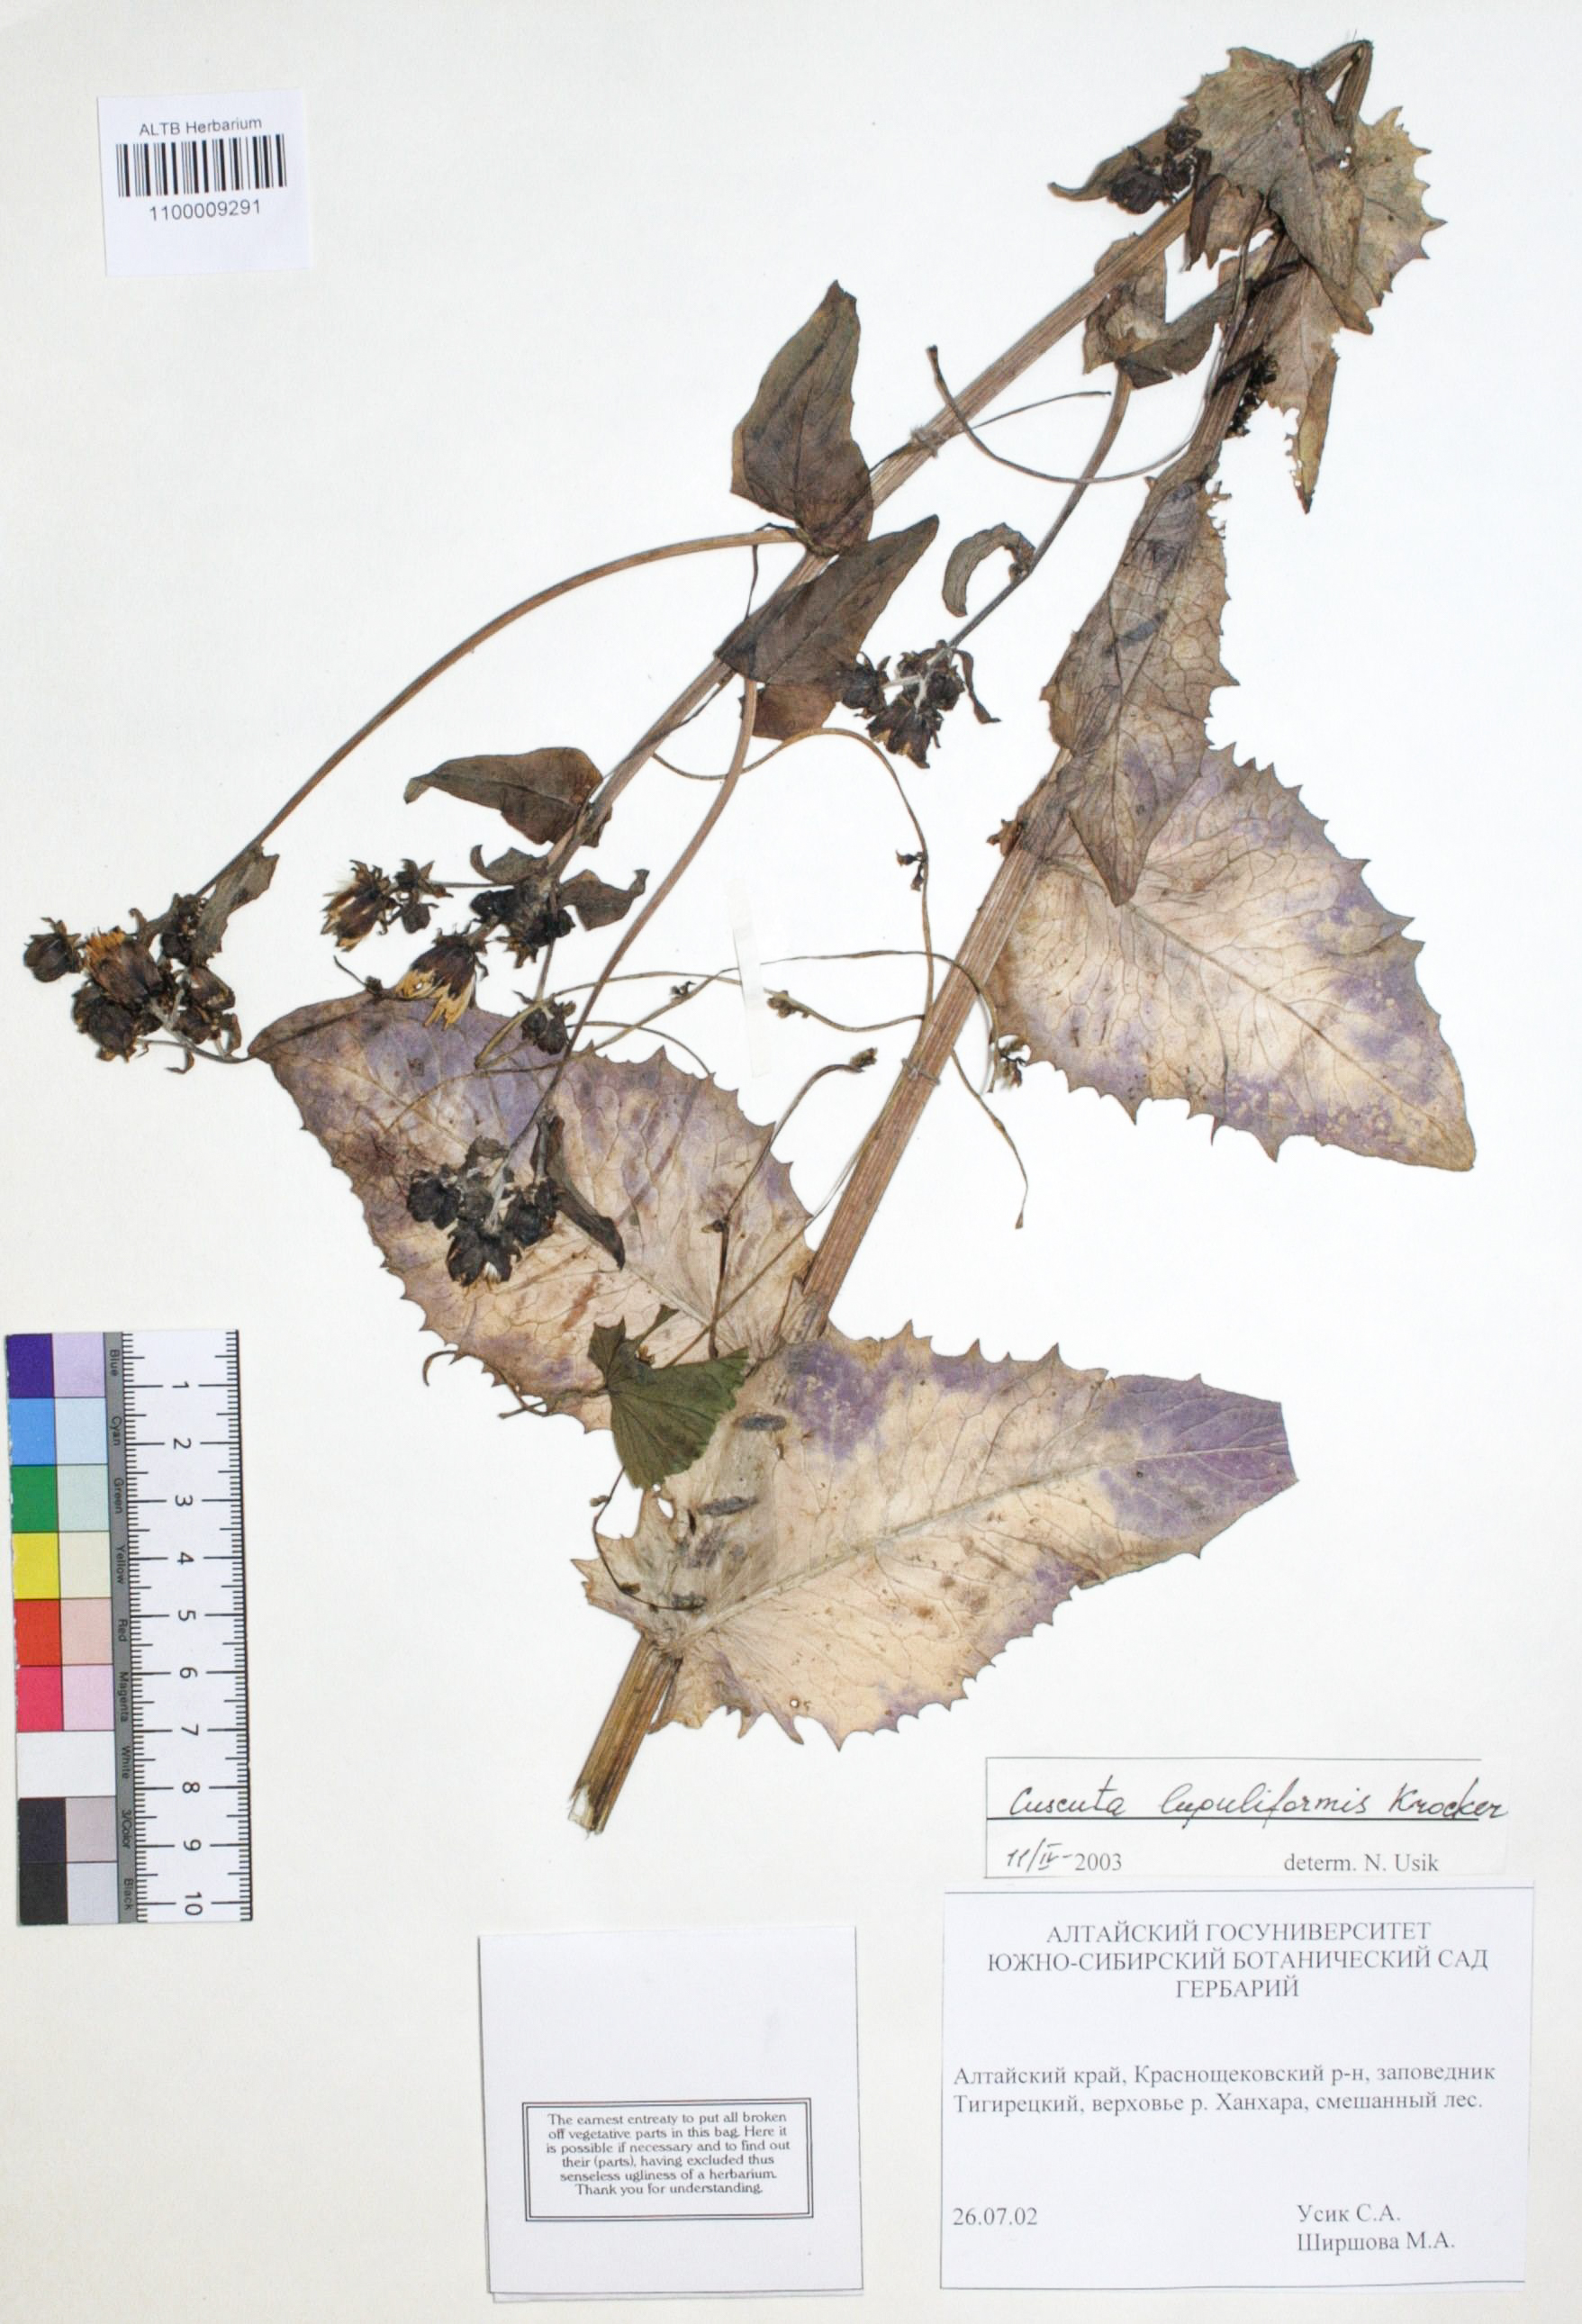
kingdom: Plantae
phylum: Tracheophyta
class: Magnoliopsida
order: Solanales
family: Convolvulaceae
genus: Cuscuta
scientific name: Cuscuta lupuliformis
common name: Hop dodder
